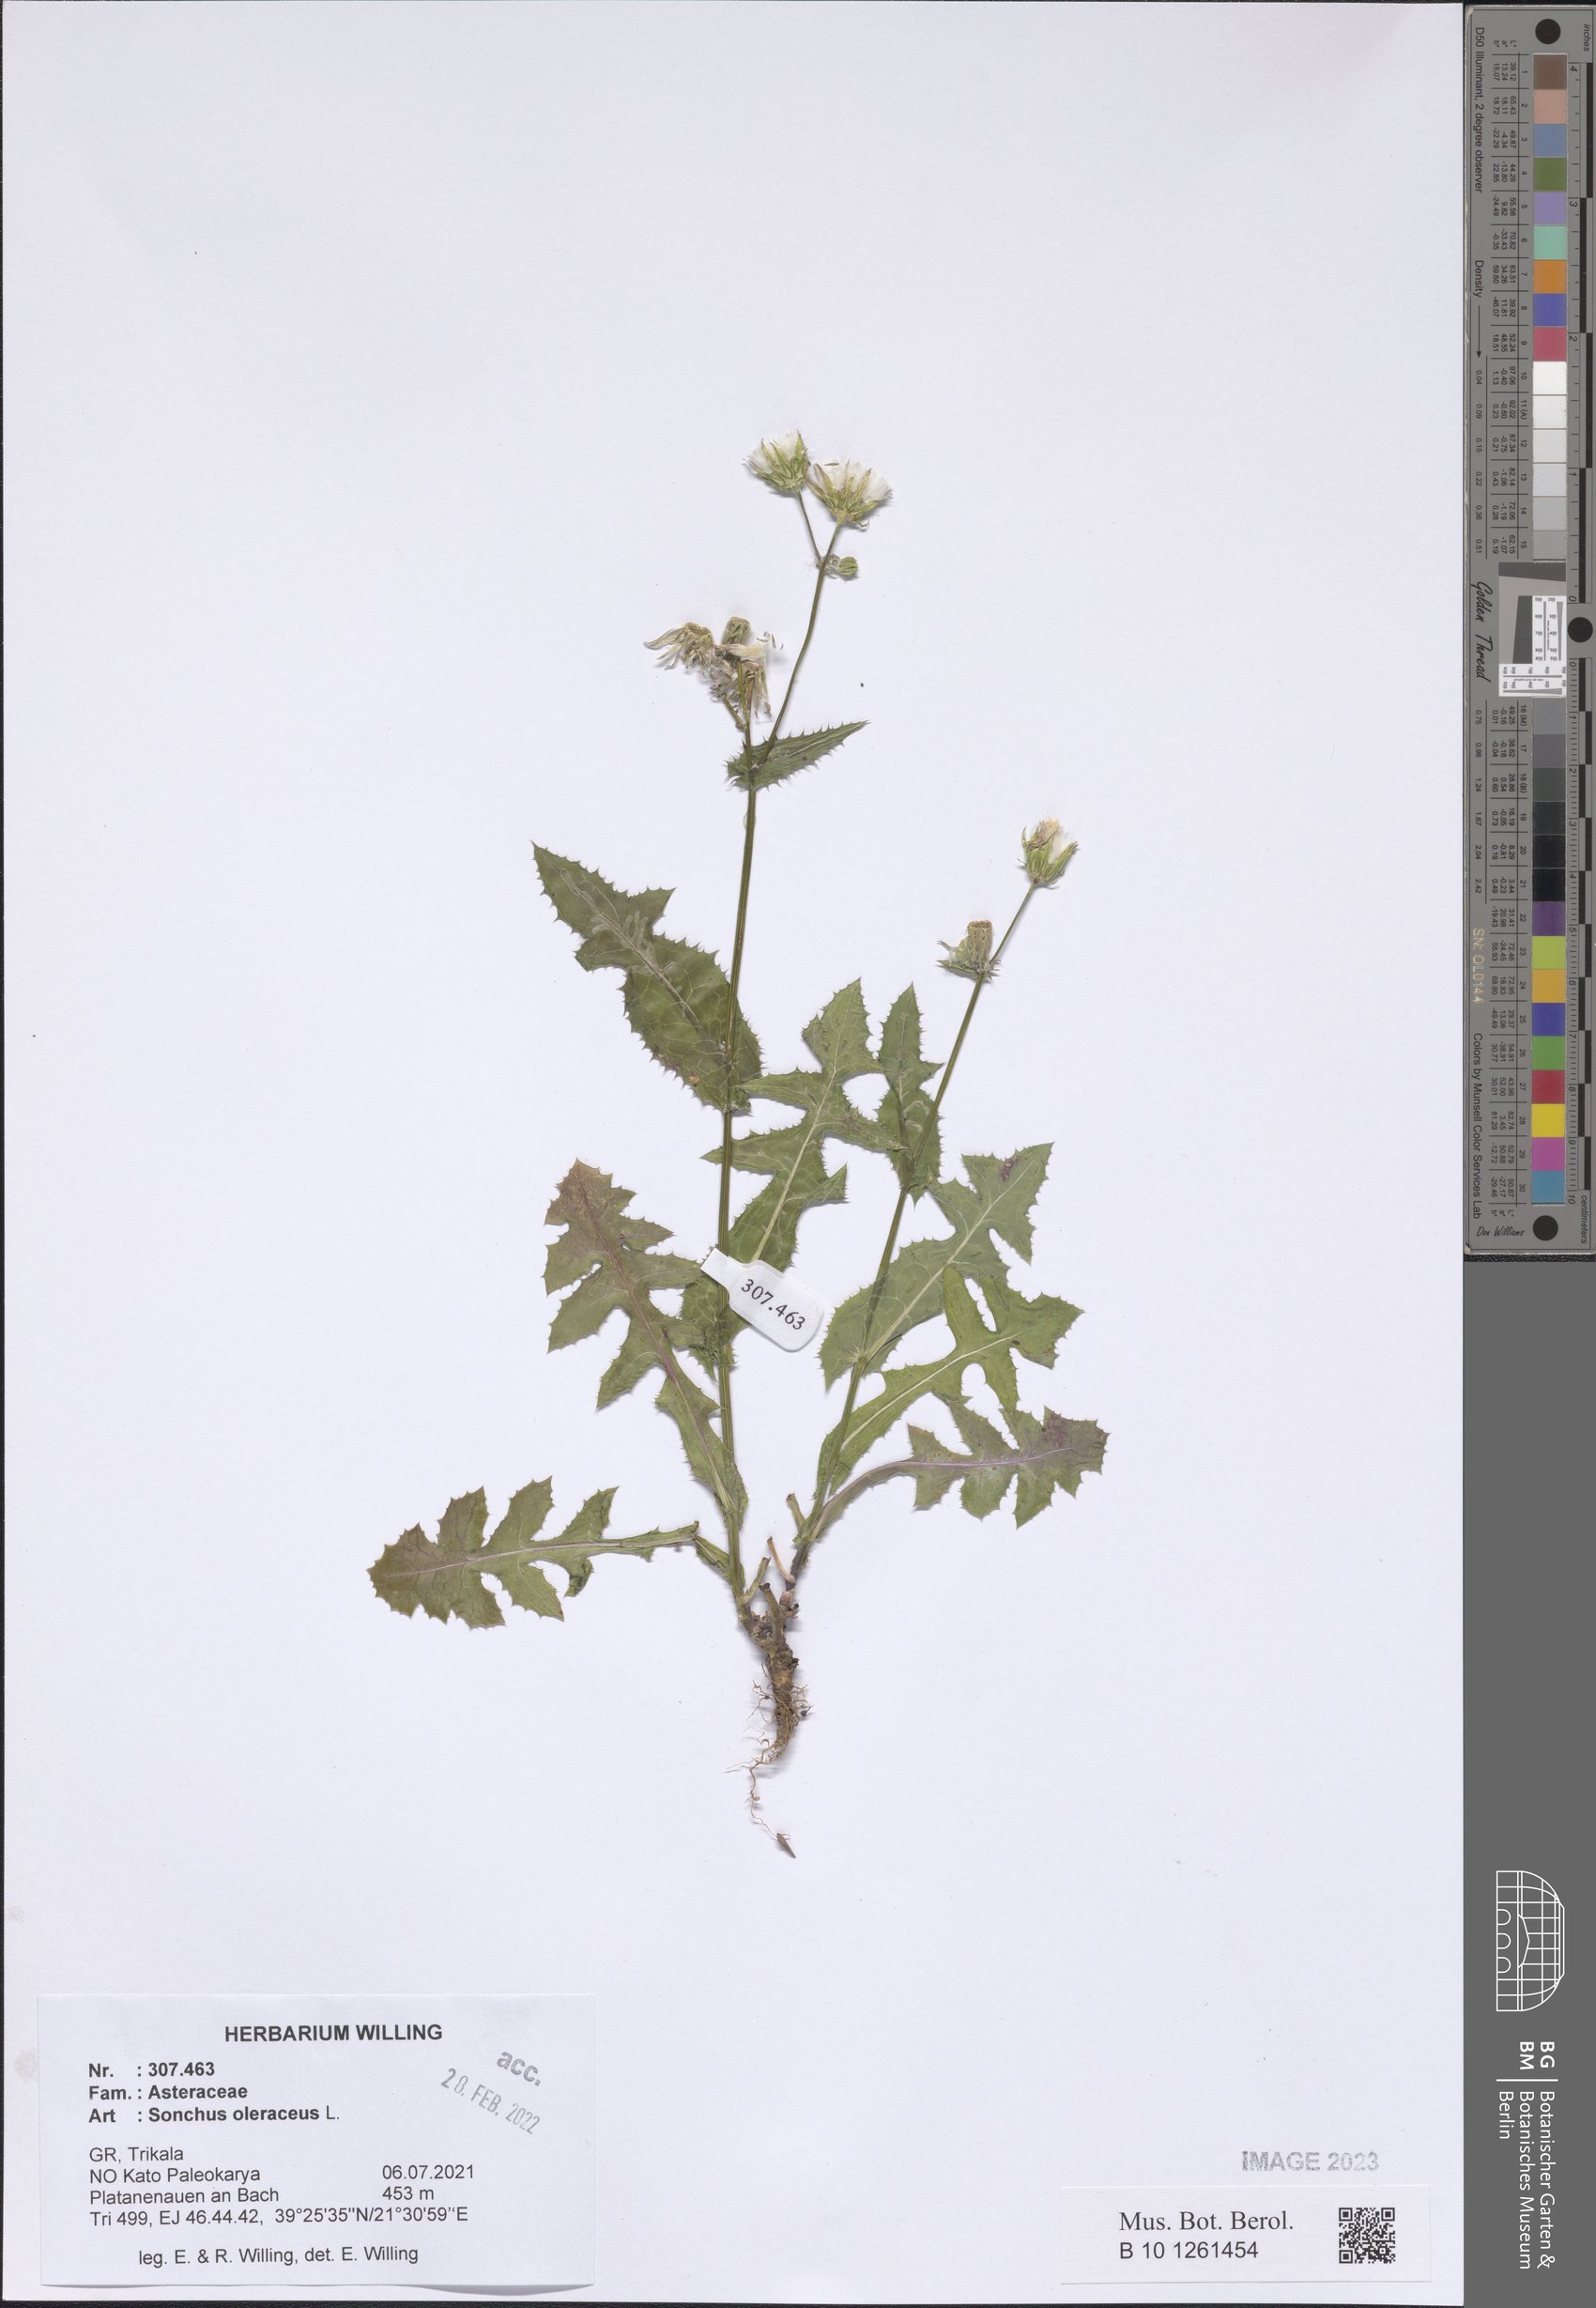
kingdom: Plantae
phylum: Tracheophyta
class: Magnoliopsida
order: Asterales
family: Asteraceae
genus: Sonchus
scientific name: Sonchus oleraceus
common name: Common sowthistle
